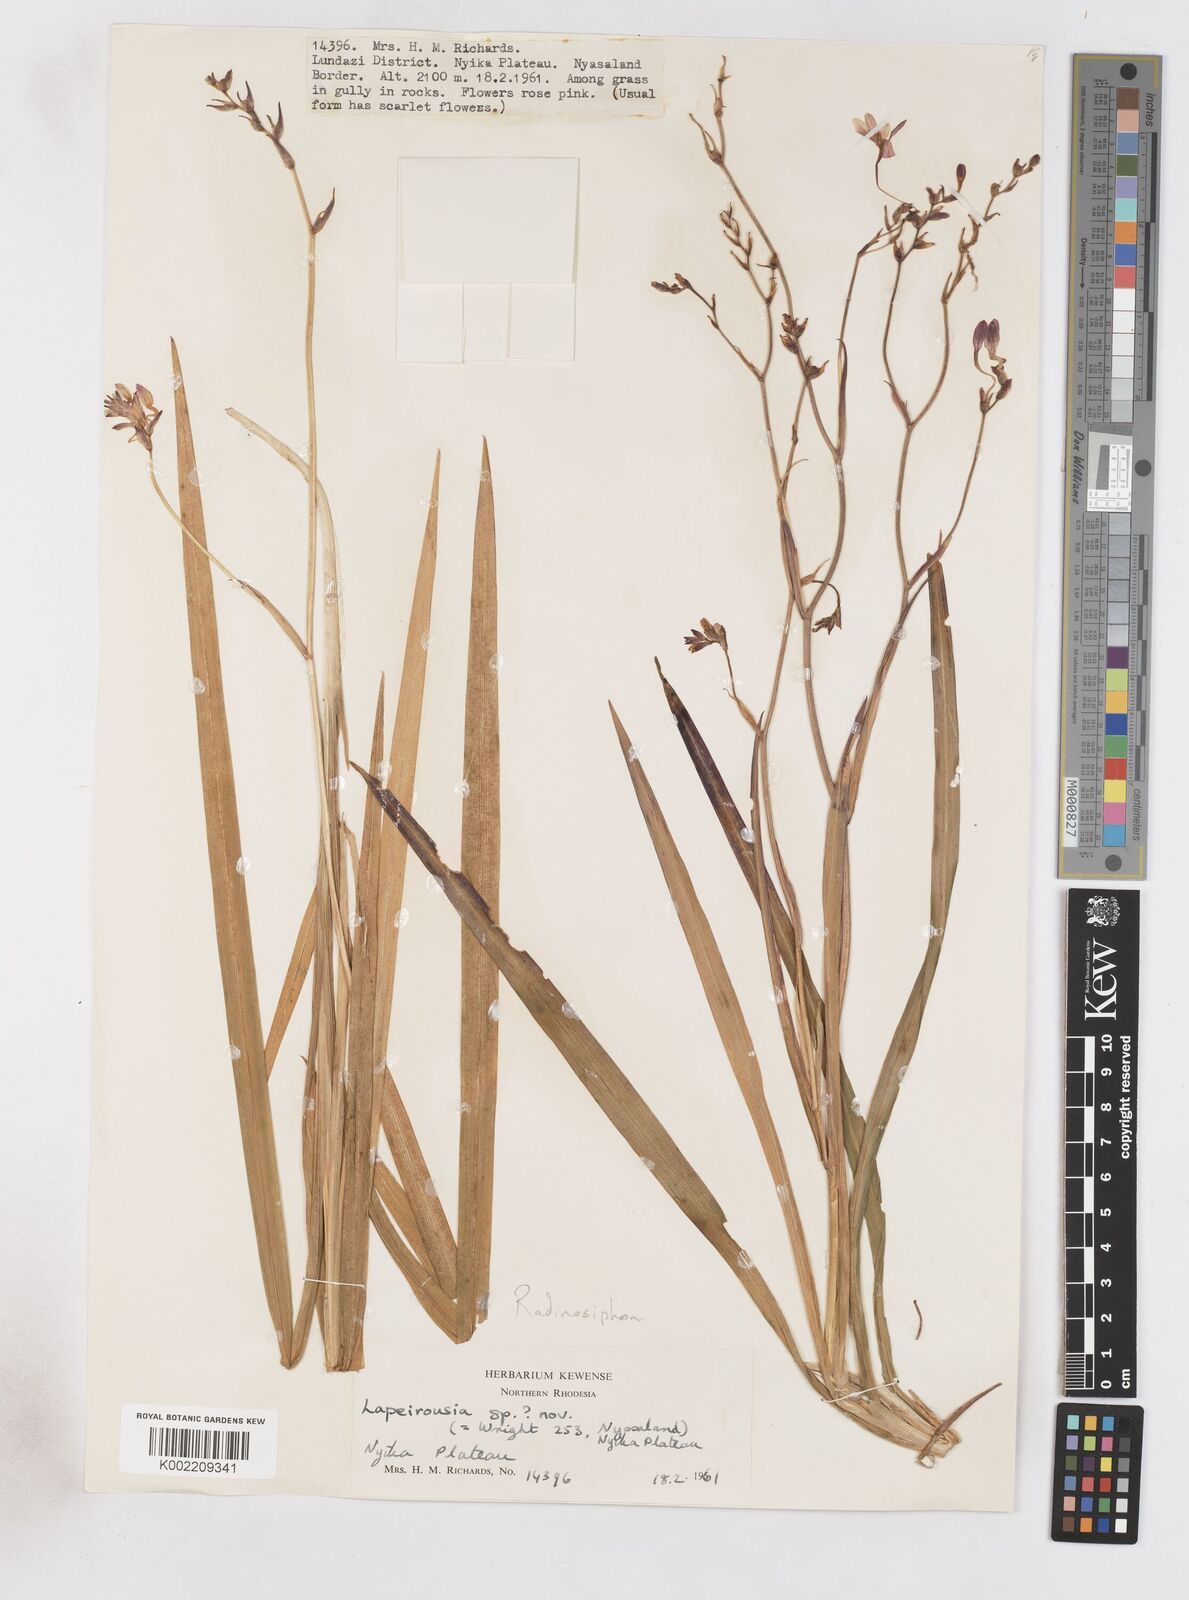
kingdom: Plantae
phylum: Tracheophyta
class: Liliopsida
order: Asparagales
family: Iridaceae
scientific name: Iridaceae
